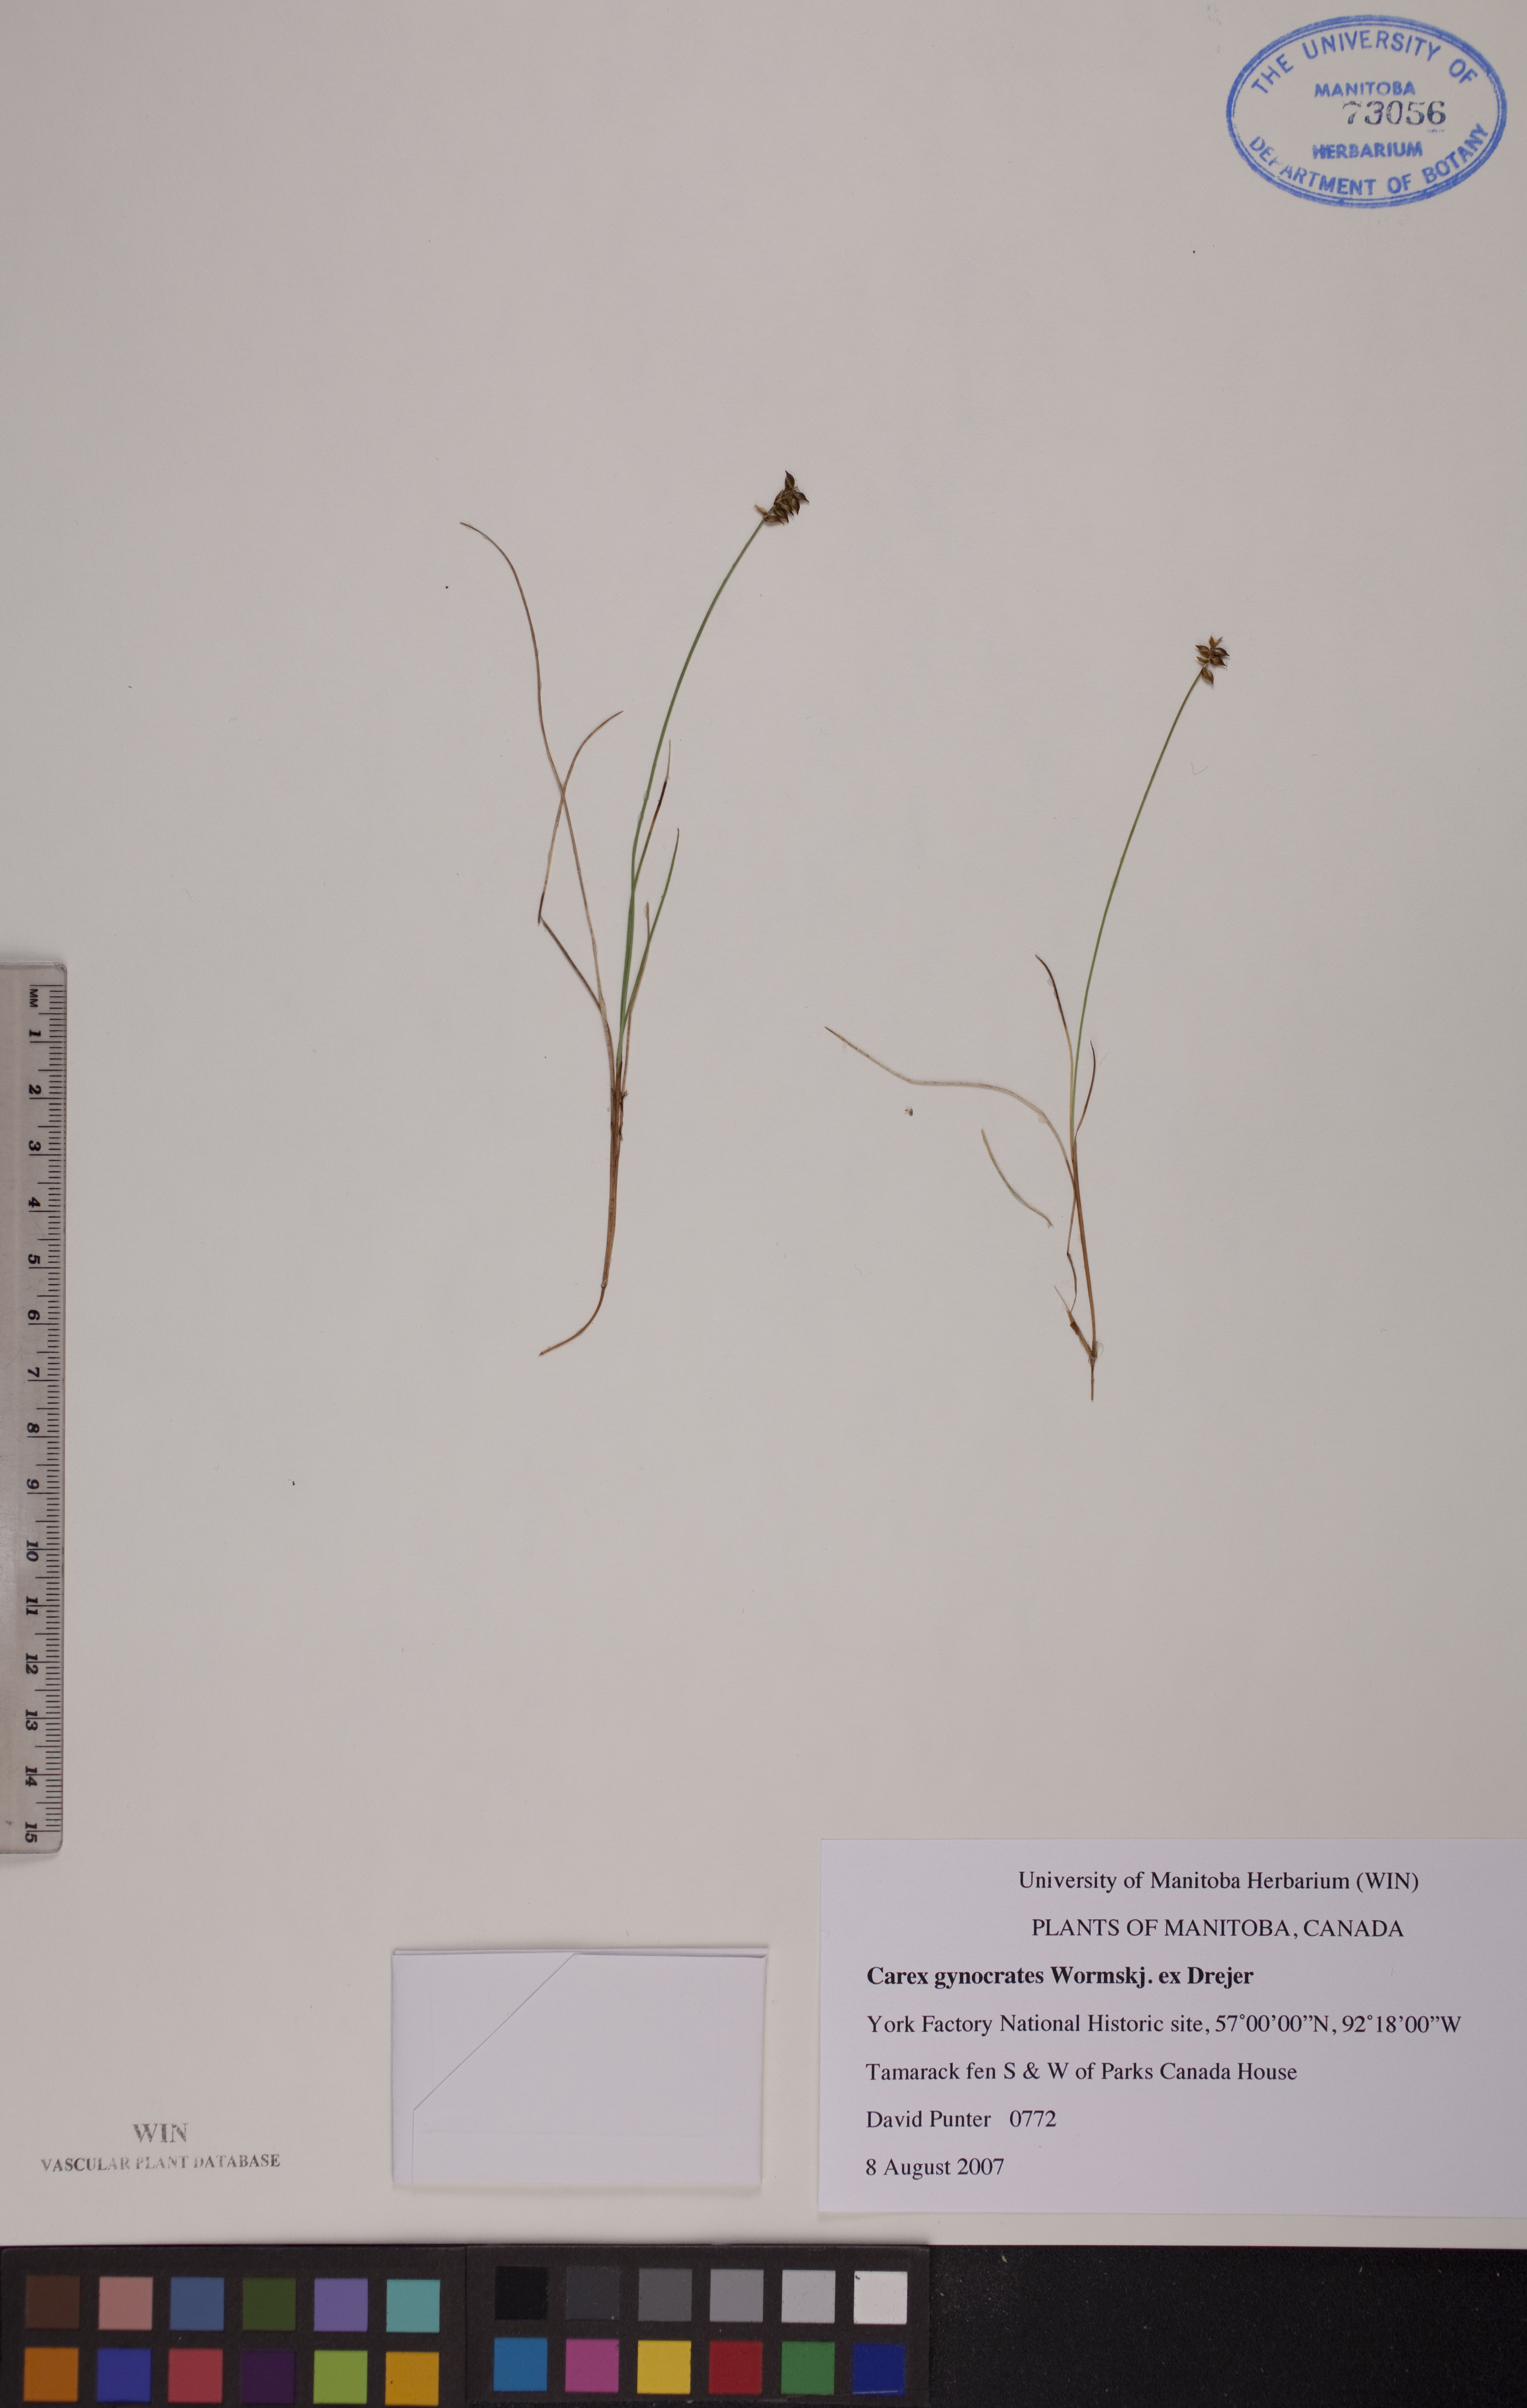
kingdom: Plantae
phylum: Tracheophyta
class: Liliopsida
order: Poales
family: Cyperaceae
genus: Carex
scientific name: Carex nardina
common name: Nard sedge
